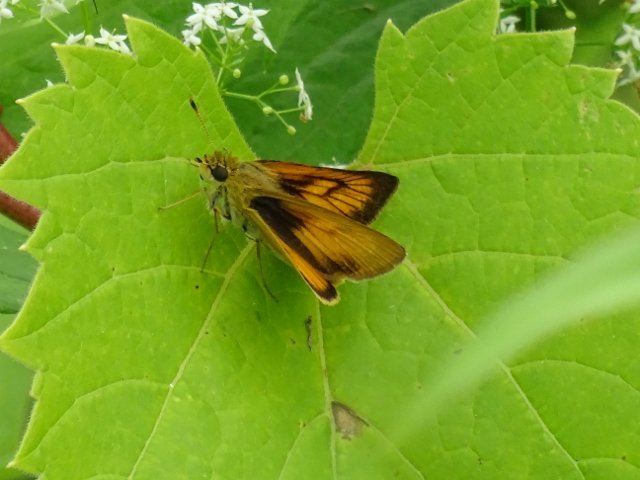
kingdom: Animalia
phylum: Arthropoda
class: Insecta
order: Lepidoptera
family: Hesperiidae
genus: Atrytone
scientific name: Atrytone delaware
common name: Delaware Skipper
